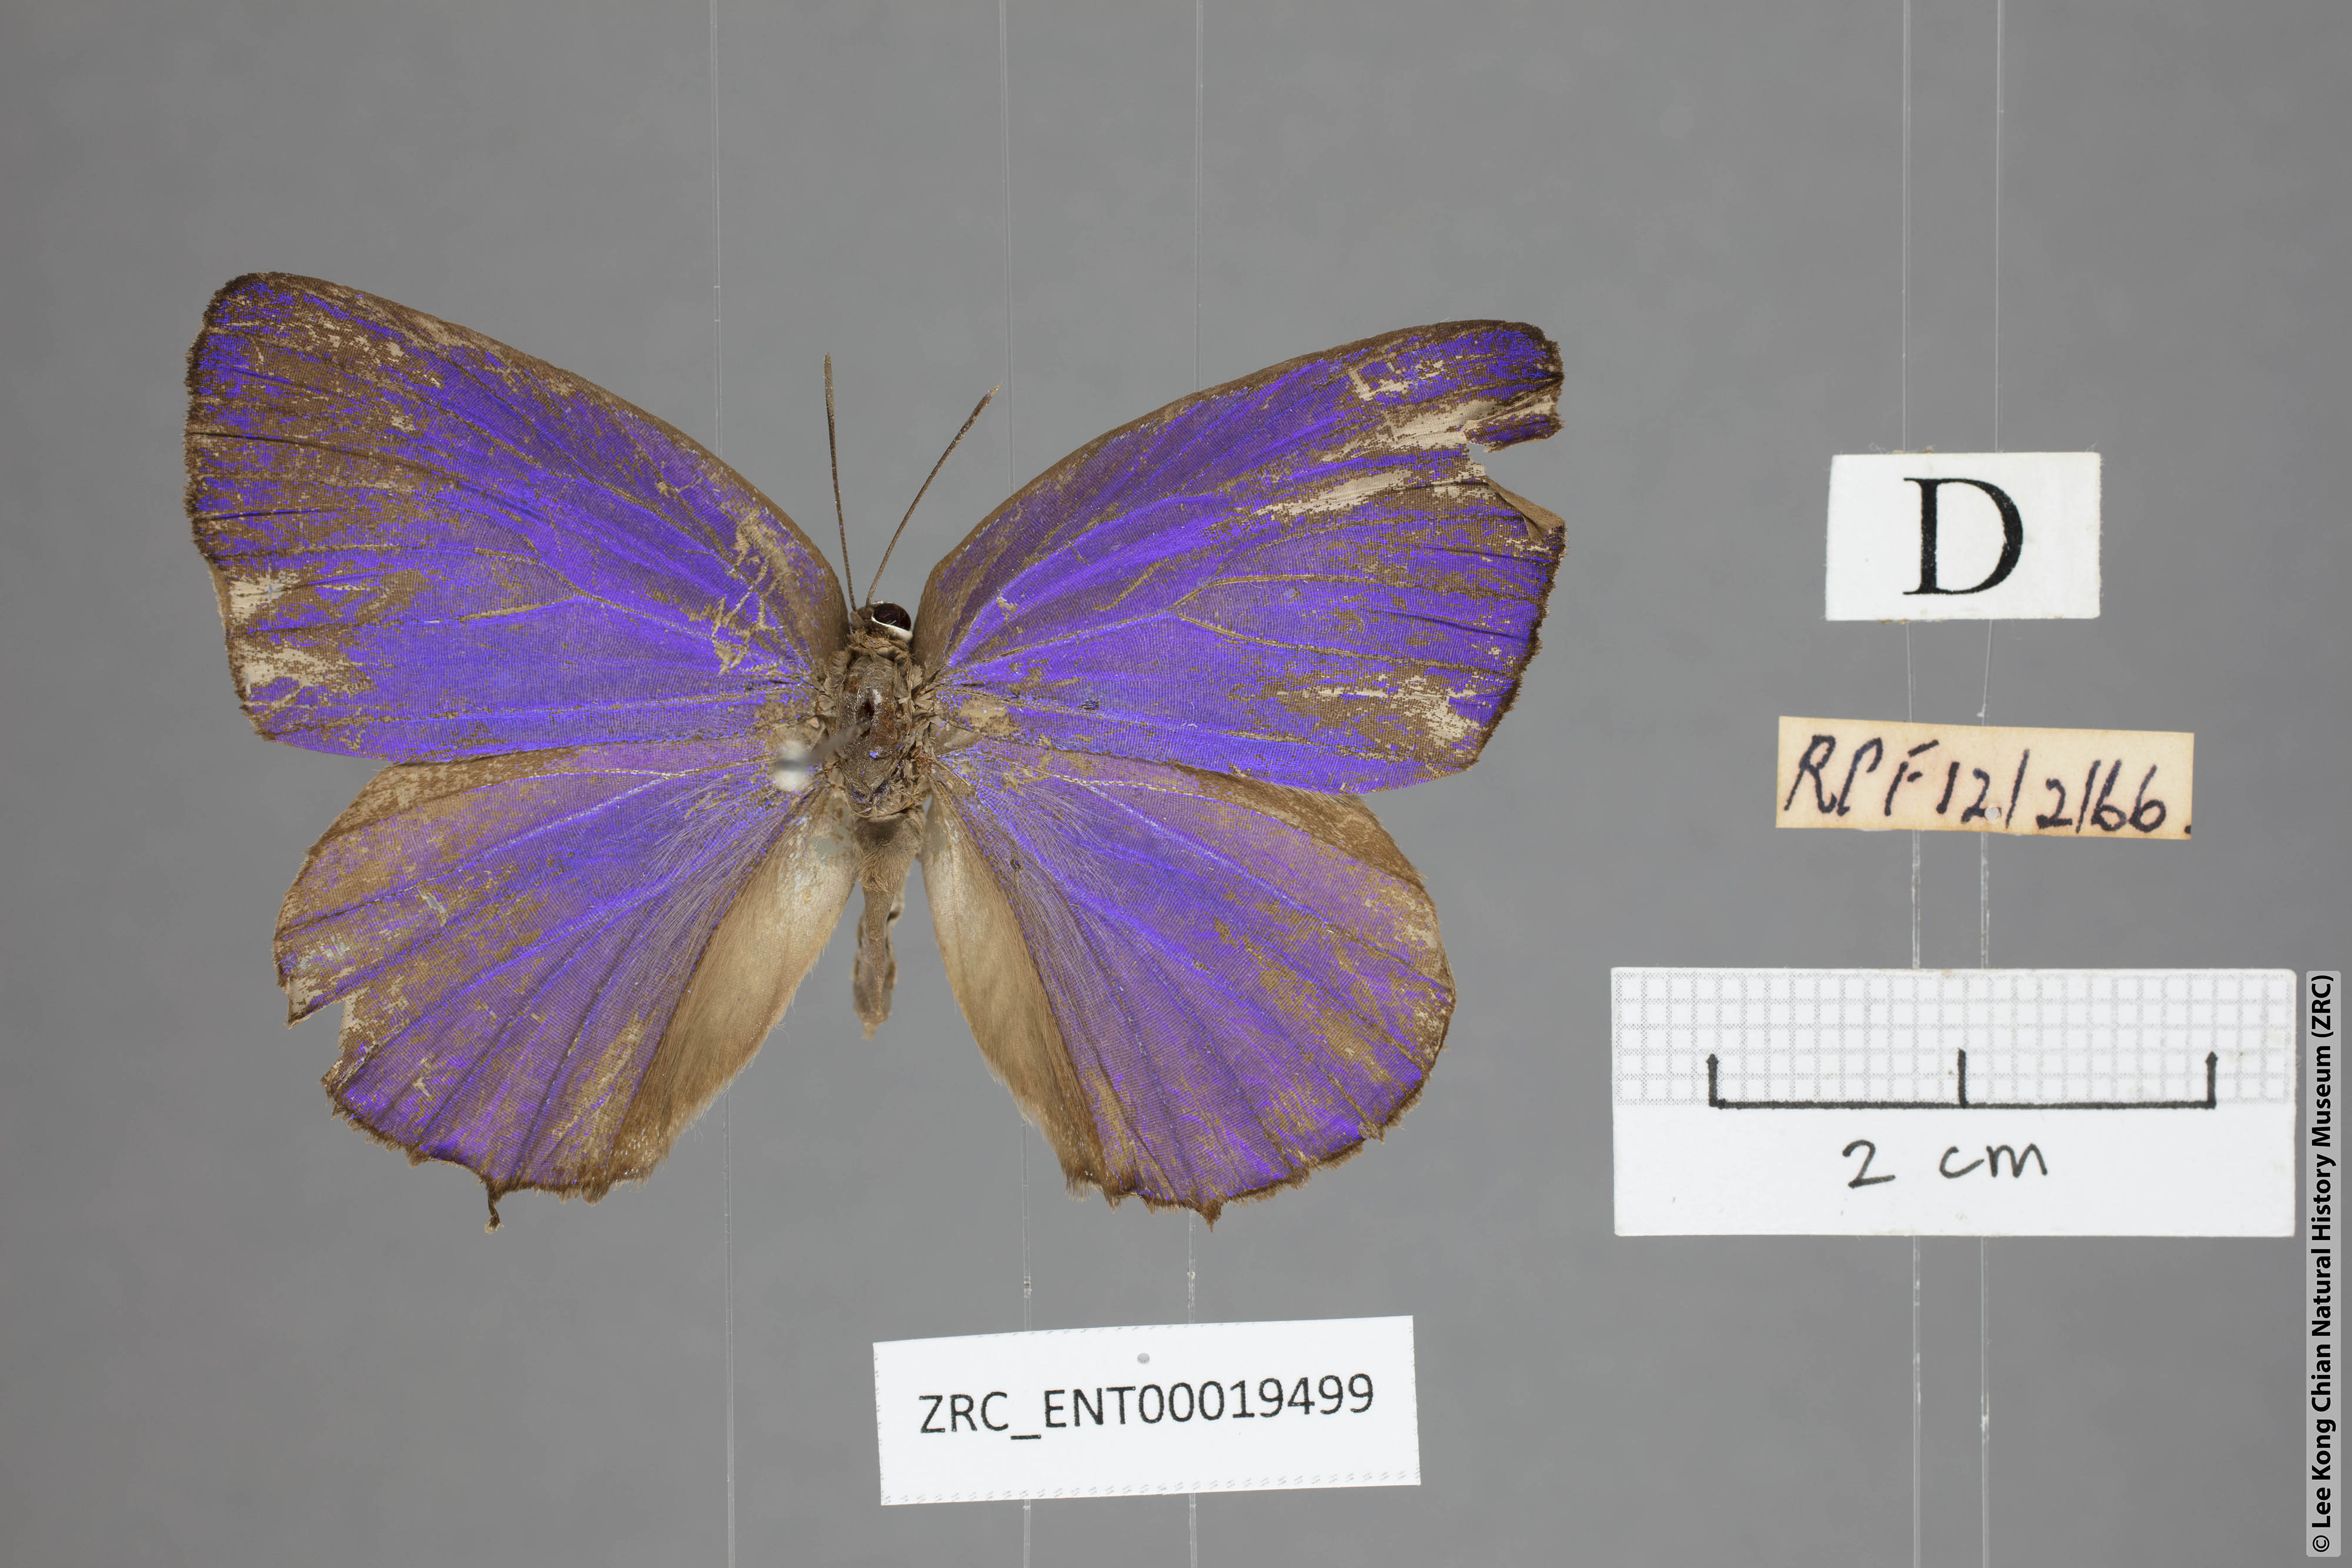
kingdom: Animalia
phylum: Arthropoda
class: Insecta
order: Lepidoptera
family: Lycaenidae
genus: Arhopala
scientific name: Arhopala hellada
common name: Long-banded oakblue
